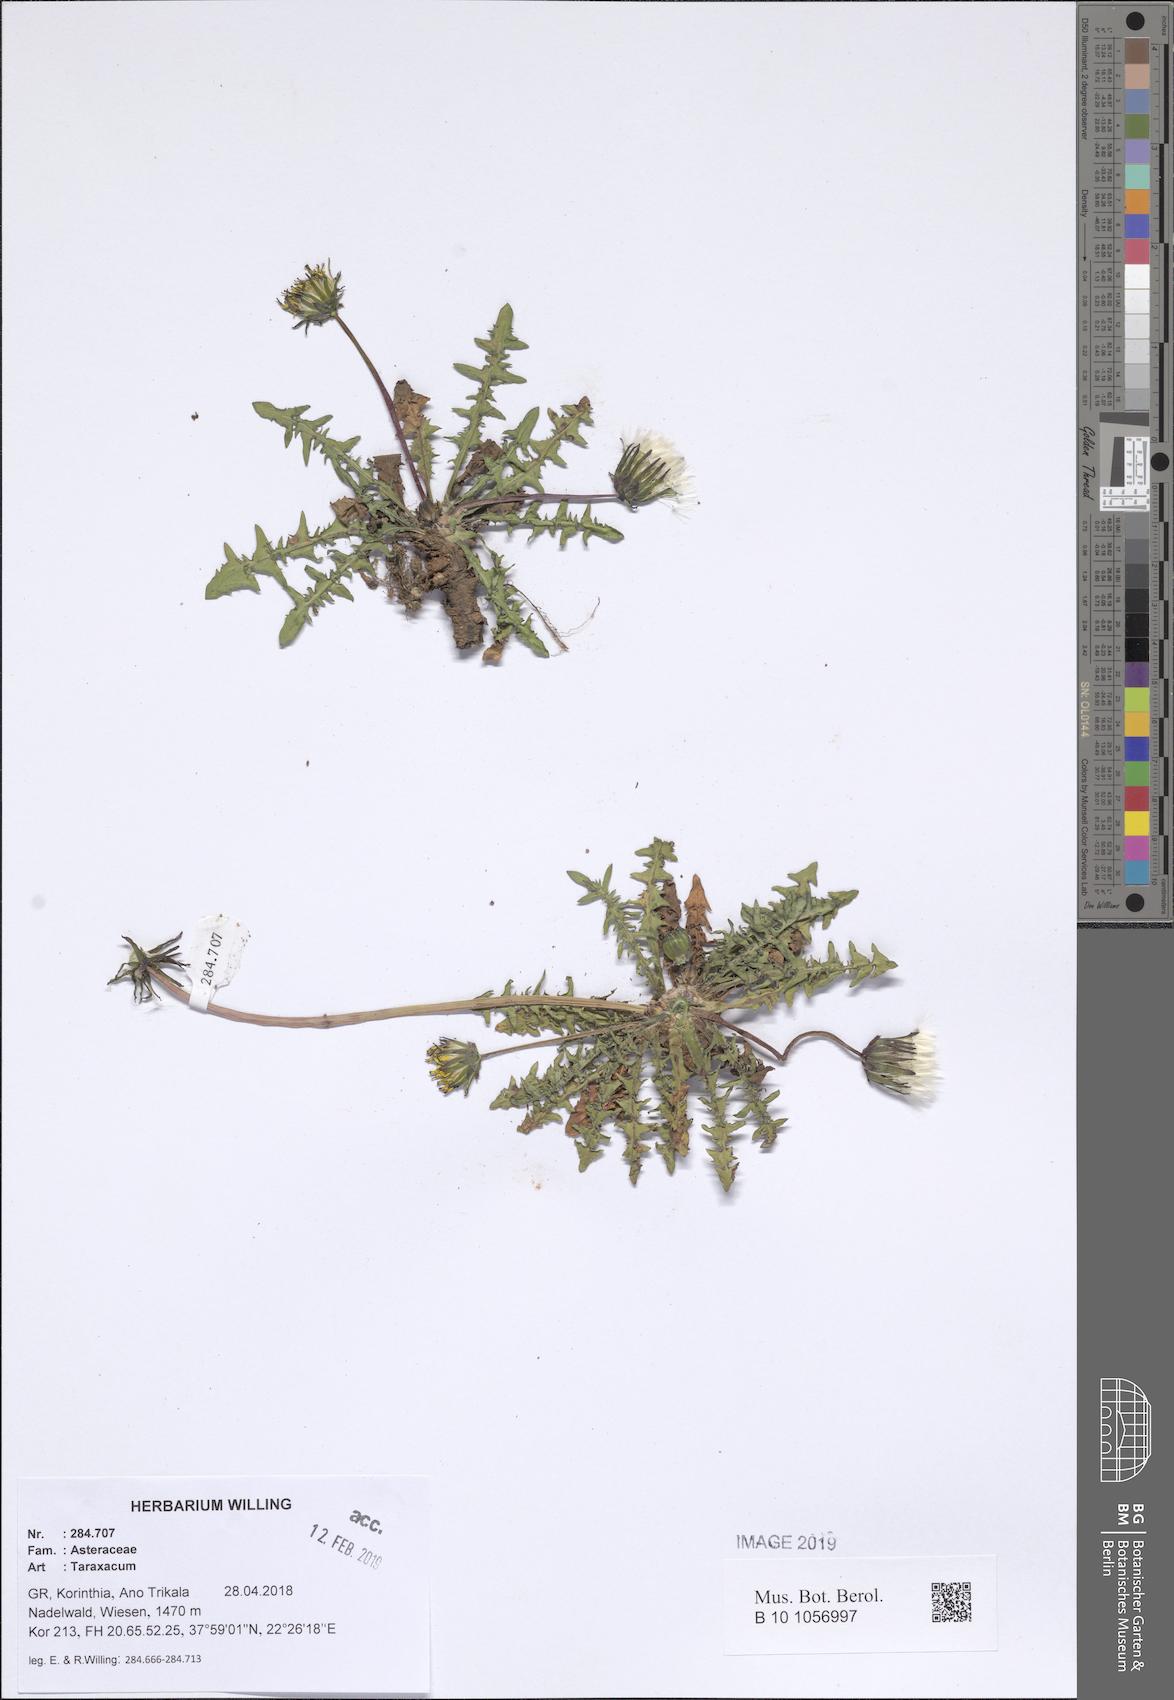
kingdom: Plantae
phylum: Tracheophyta
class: Magnoliopsida
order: Asterales
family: Asteraceae
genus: Taraxacum
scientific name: Taraxacum
